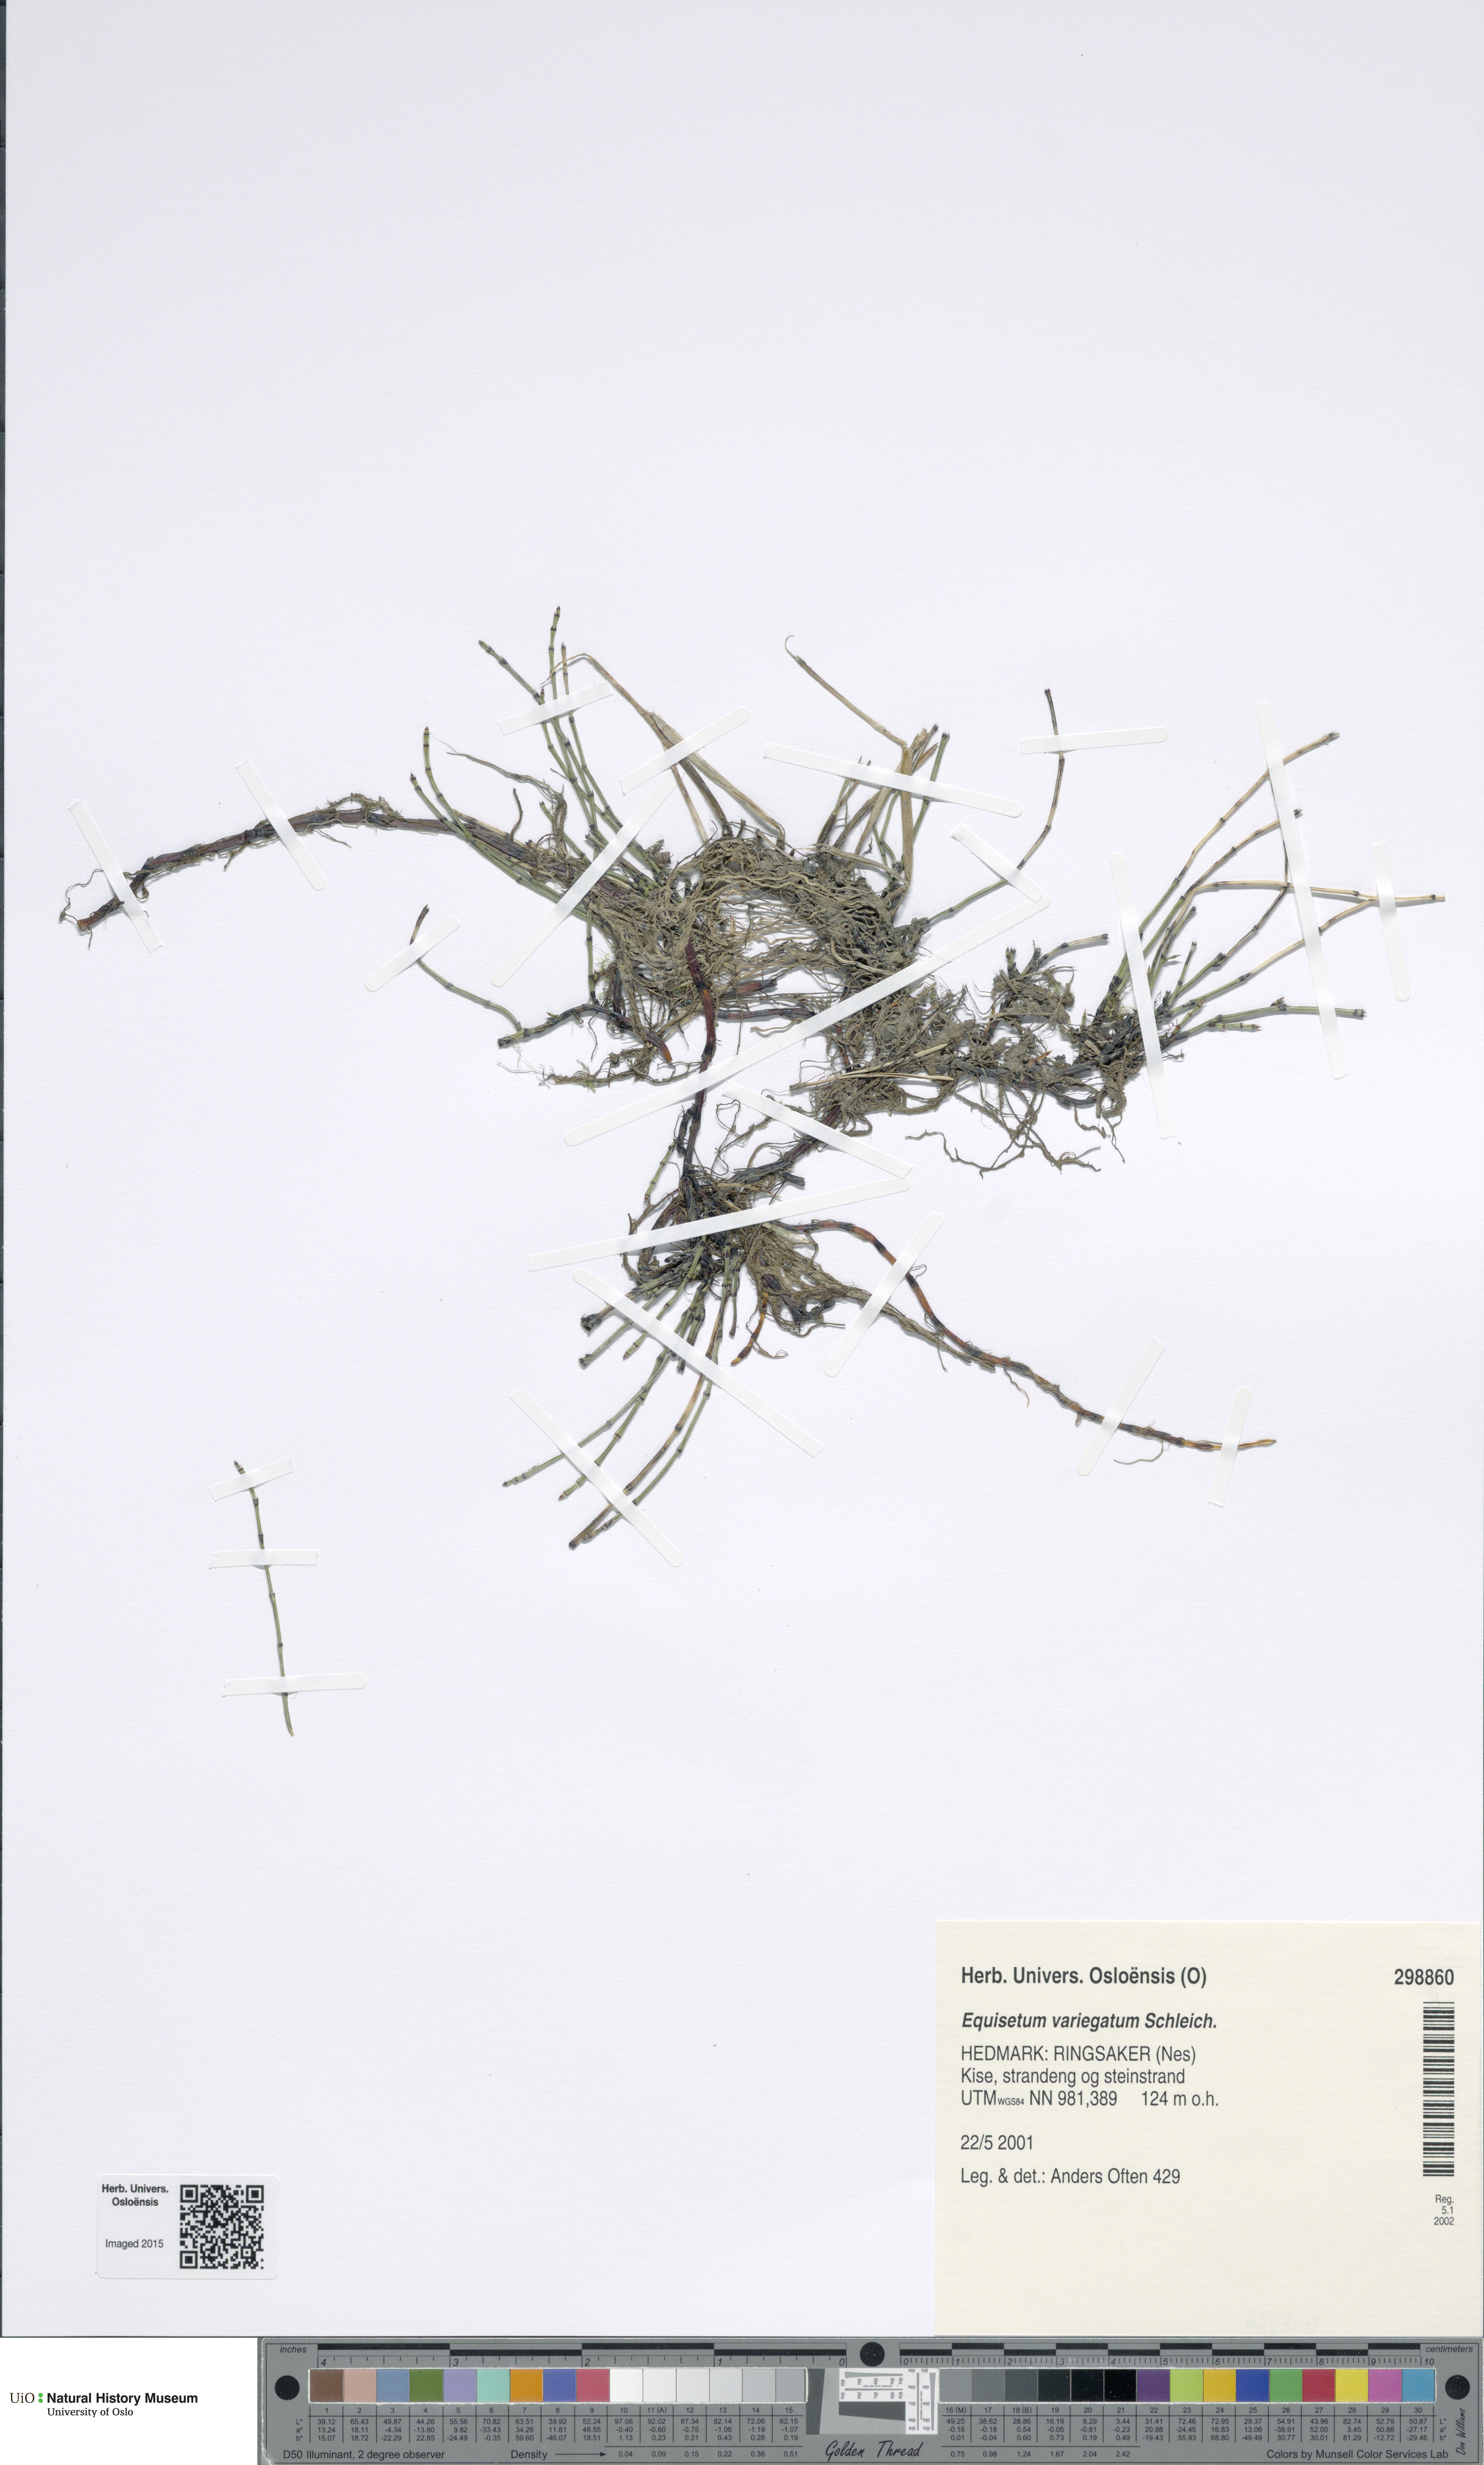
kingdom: Plantae
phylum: Tracheophyta
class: Polypodiopsida
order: Equisetales
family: Equisetaceae
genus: Equisetum
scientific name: Equisetum variegatum
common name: Variegated horsetail
